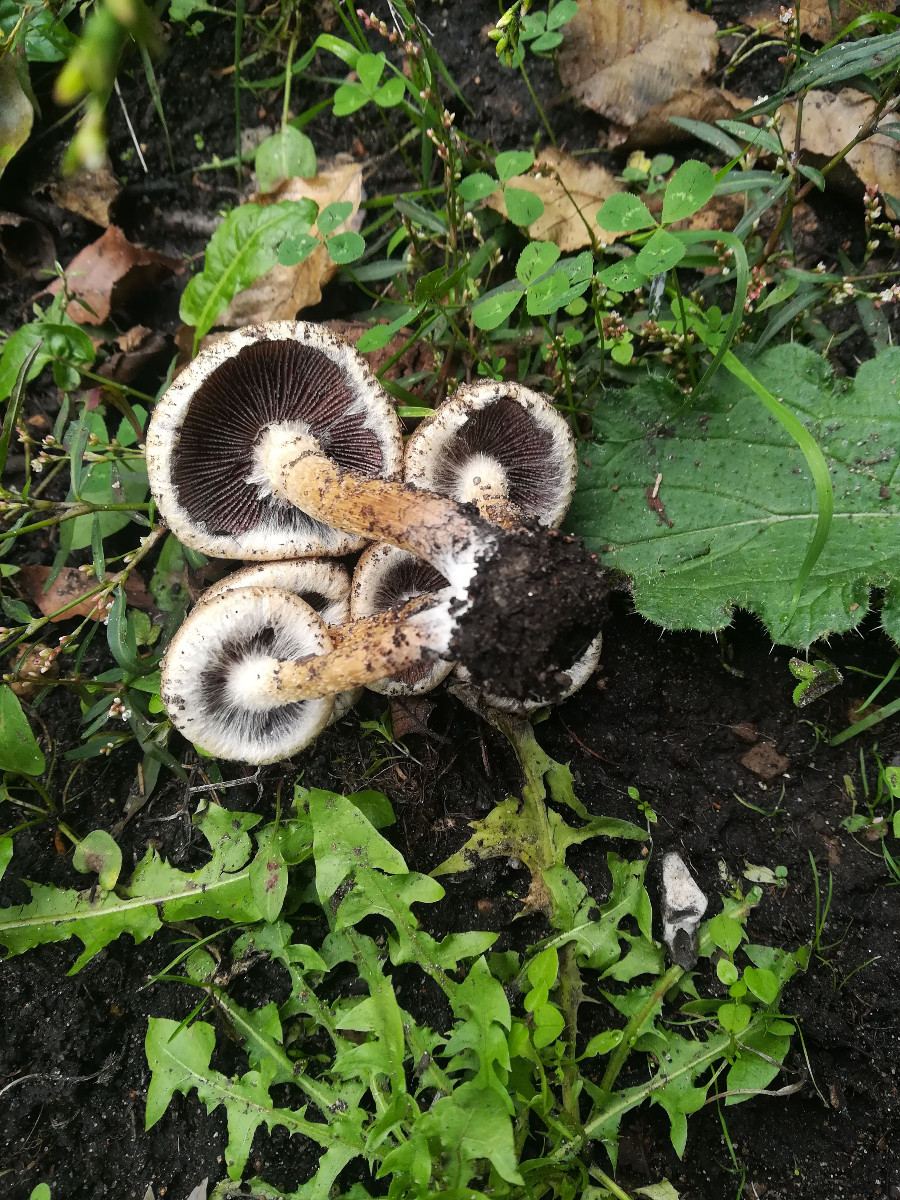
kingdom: Fungi
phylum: Basidiomycota
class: Agaricomycetes
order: Agaricales
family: Psathyrellaceae
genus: Lacrymaria
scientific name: Lacrymaria lacrymabunda
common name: grædende mørkhat
